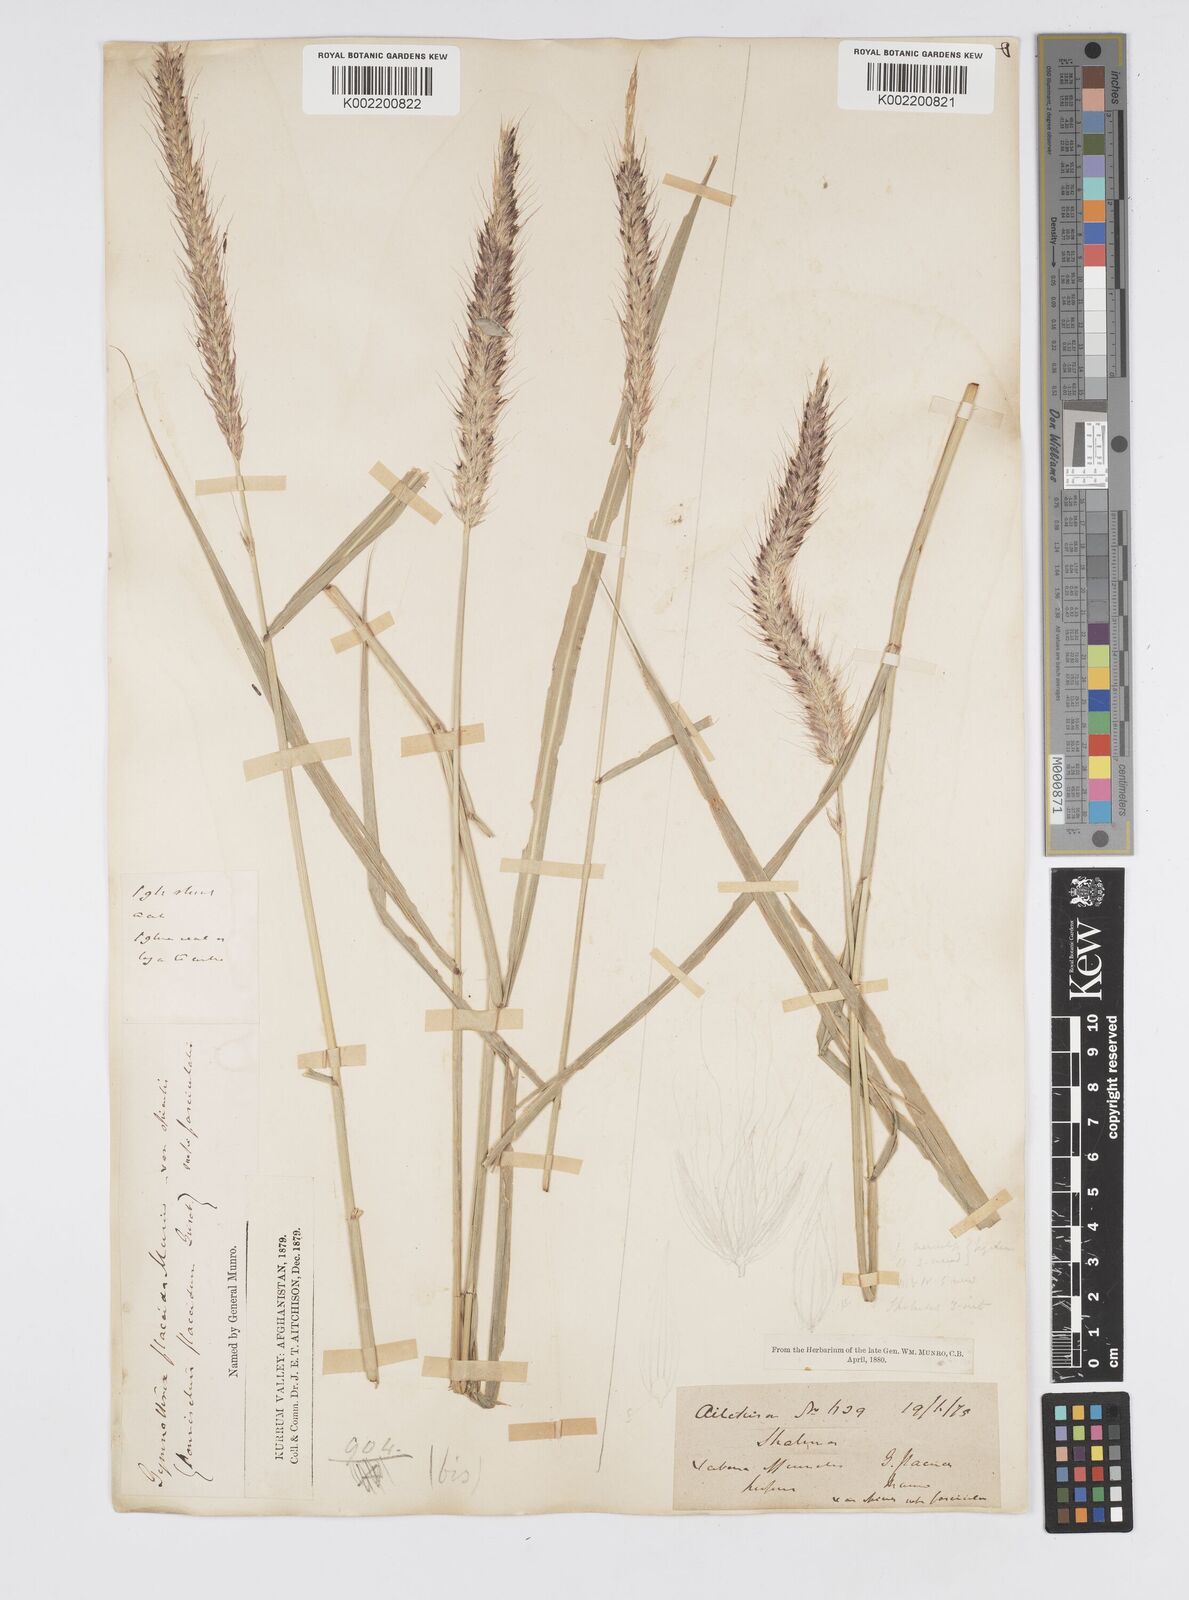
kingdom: Plantae
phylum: Tracheophyta
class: Liliopsida
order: Poales
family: Poaceae
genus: Cenchrus
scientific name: Cenchrus flaccidus
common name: Flaccid grass
